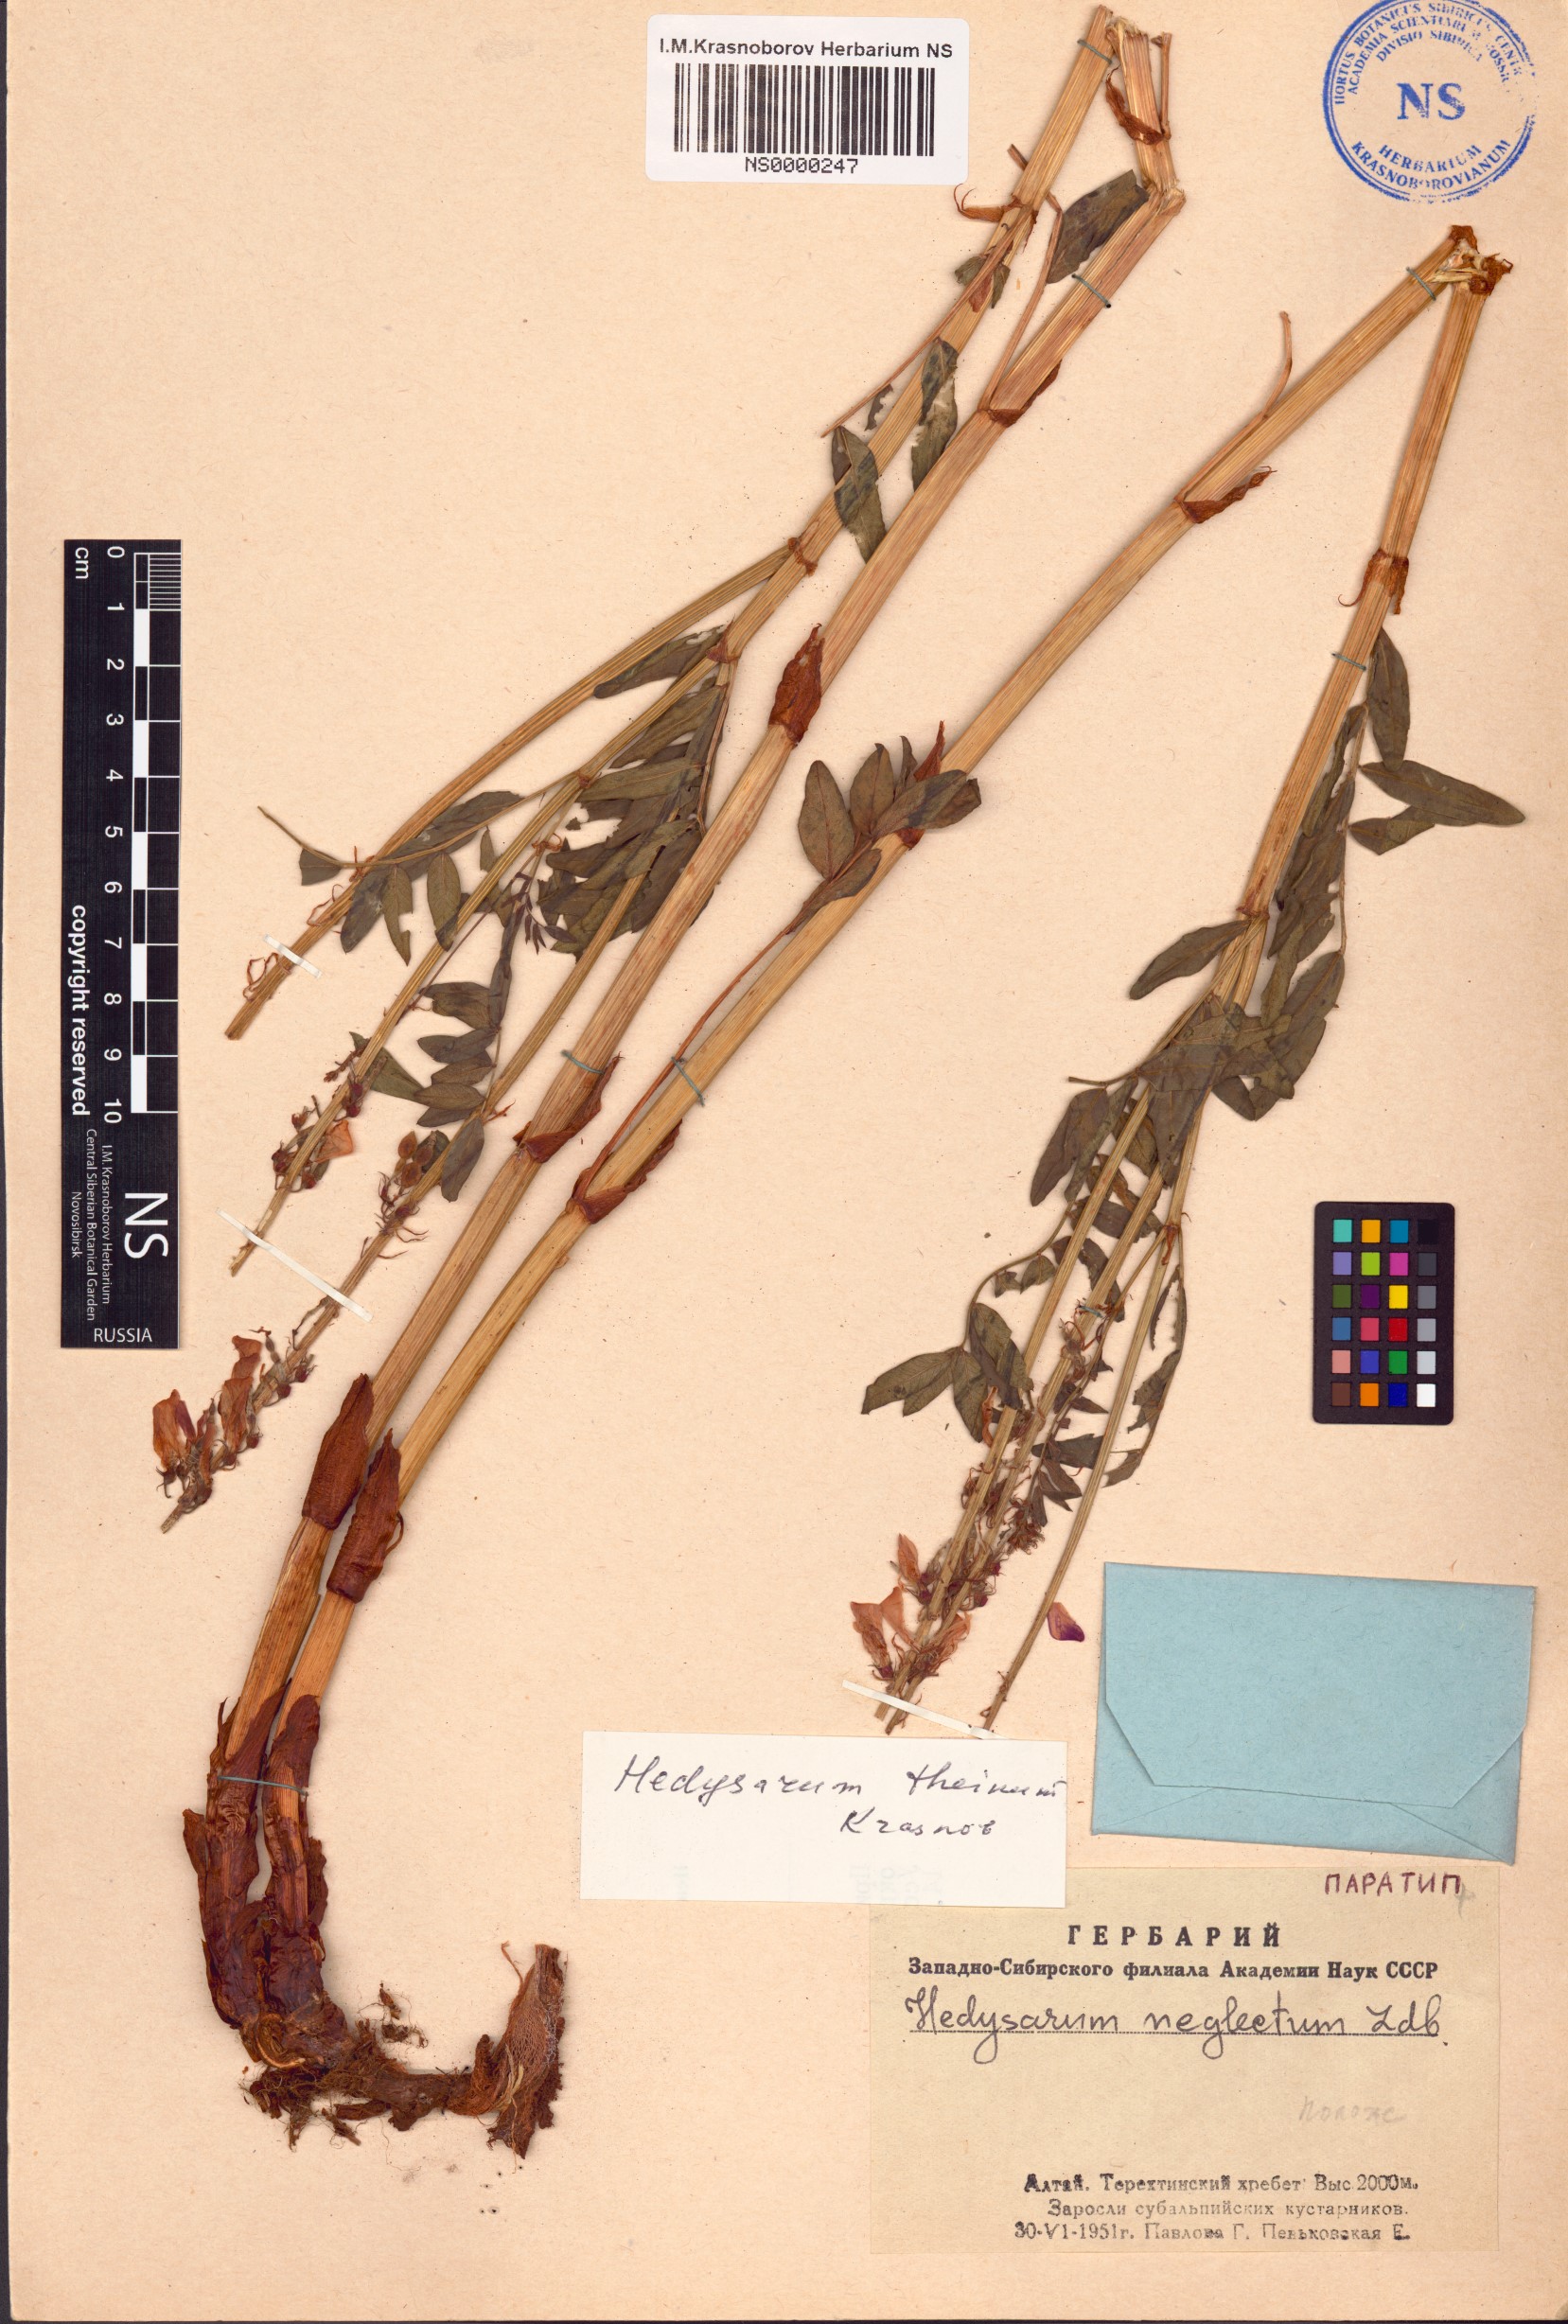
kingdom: Plantae
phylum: Tracheophyta
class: Magnoliopsida
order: Fabales
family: Fabaceae
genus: Hedysarum
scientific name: Hedysarum theinum
